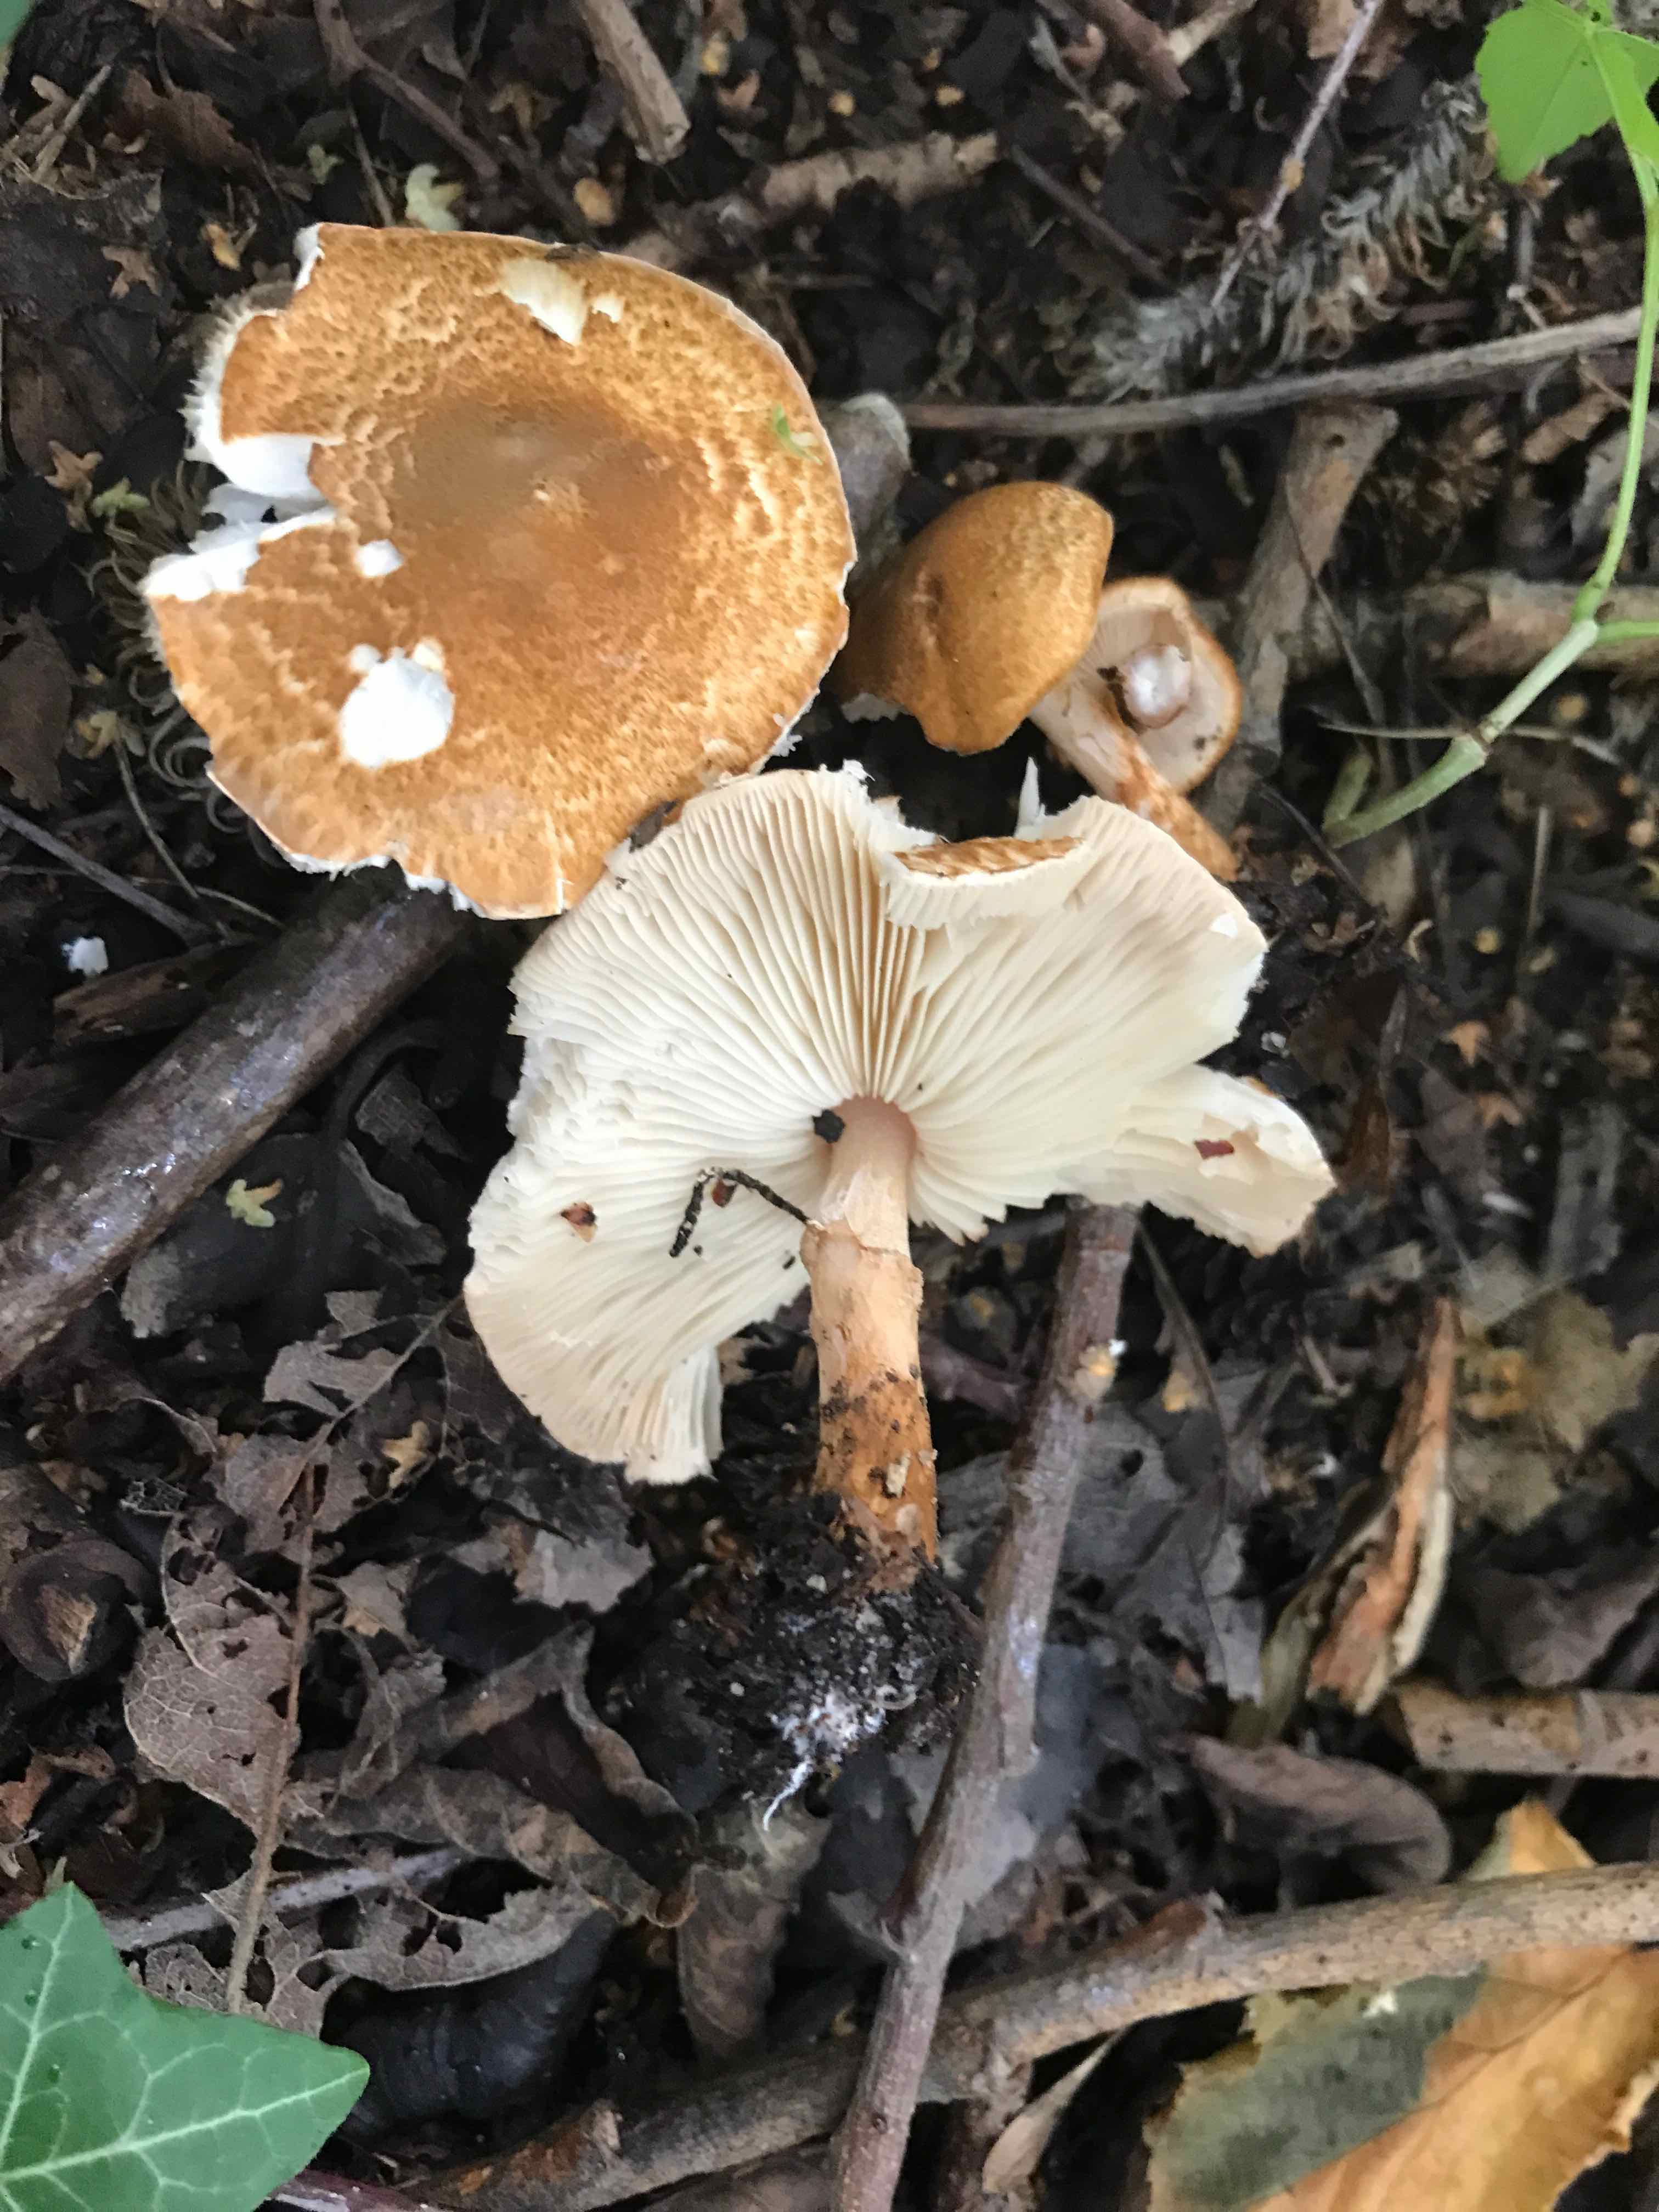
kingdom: Fungi
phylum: Basidiomycota
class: Agaricomycetes
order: Agaricales
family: Agaricaceae
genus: Leucocoprinus
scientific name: Leucocoprinus straminellus
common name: rustbrun parasolhat
